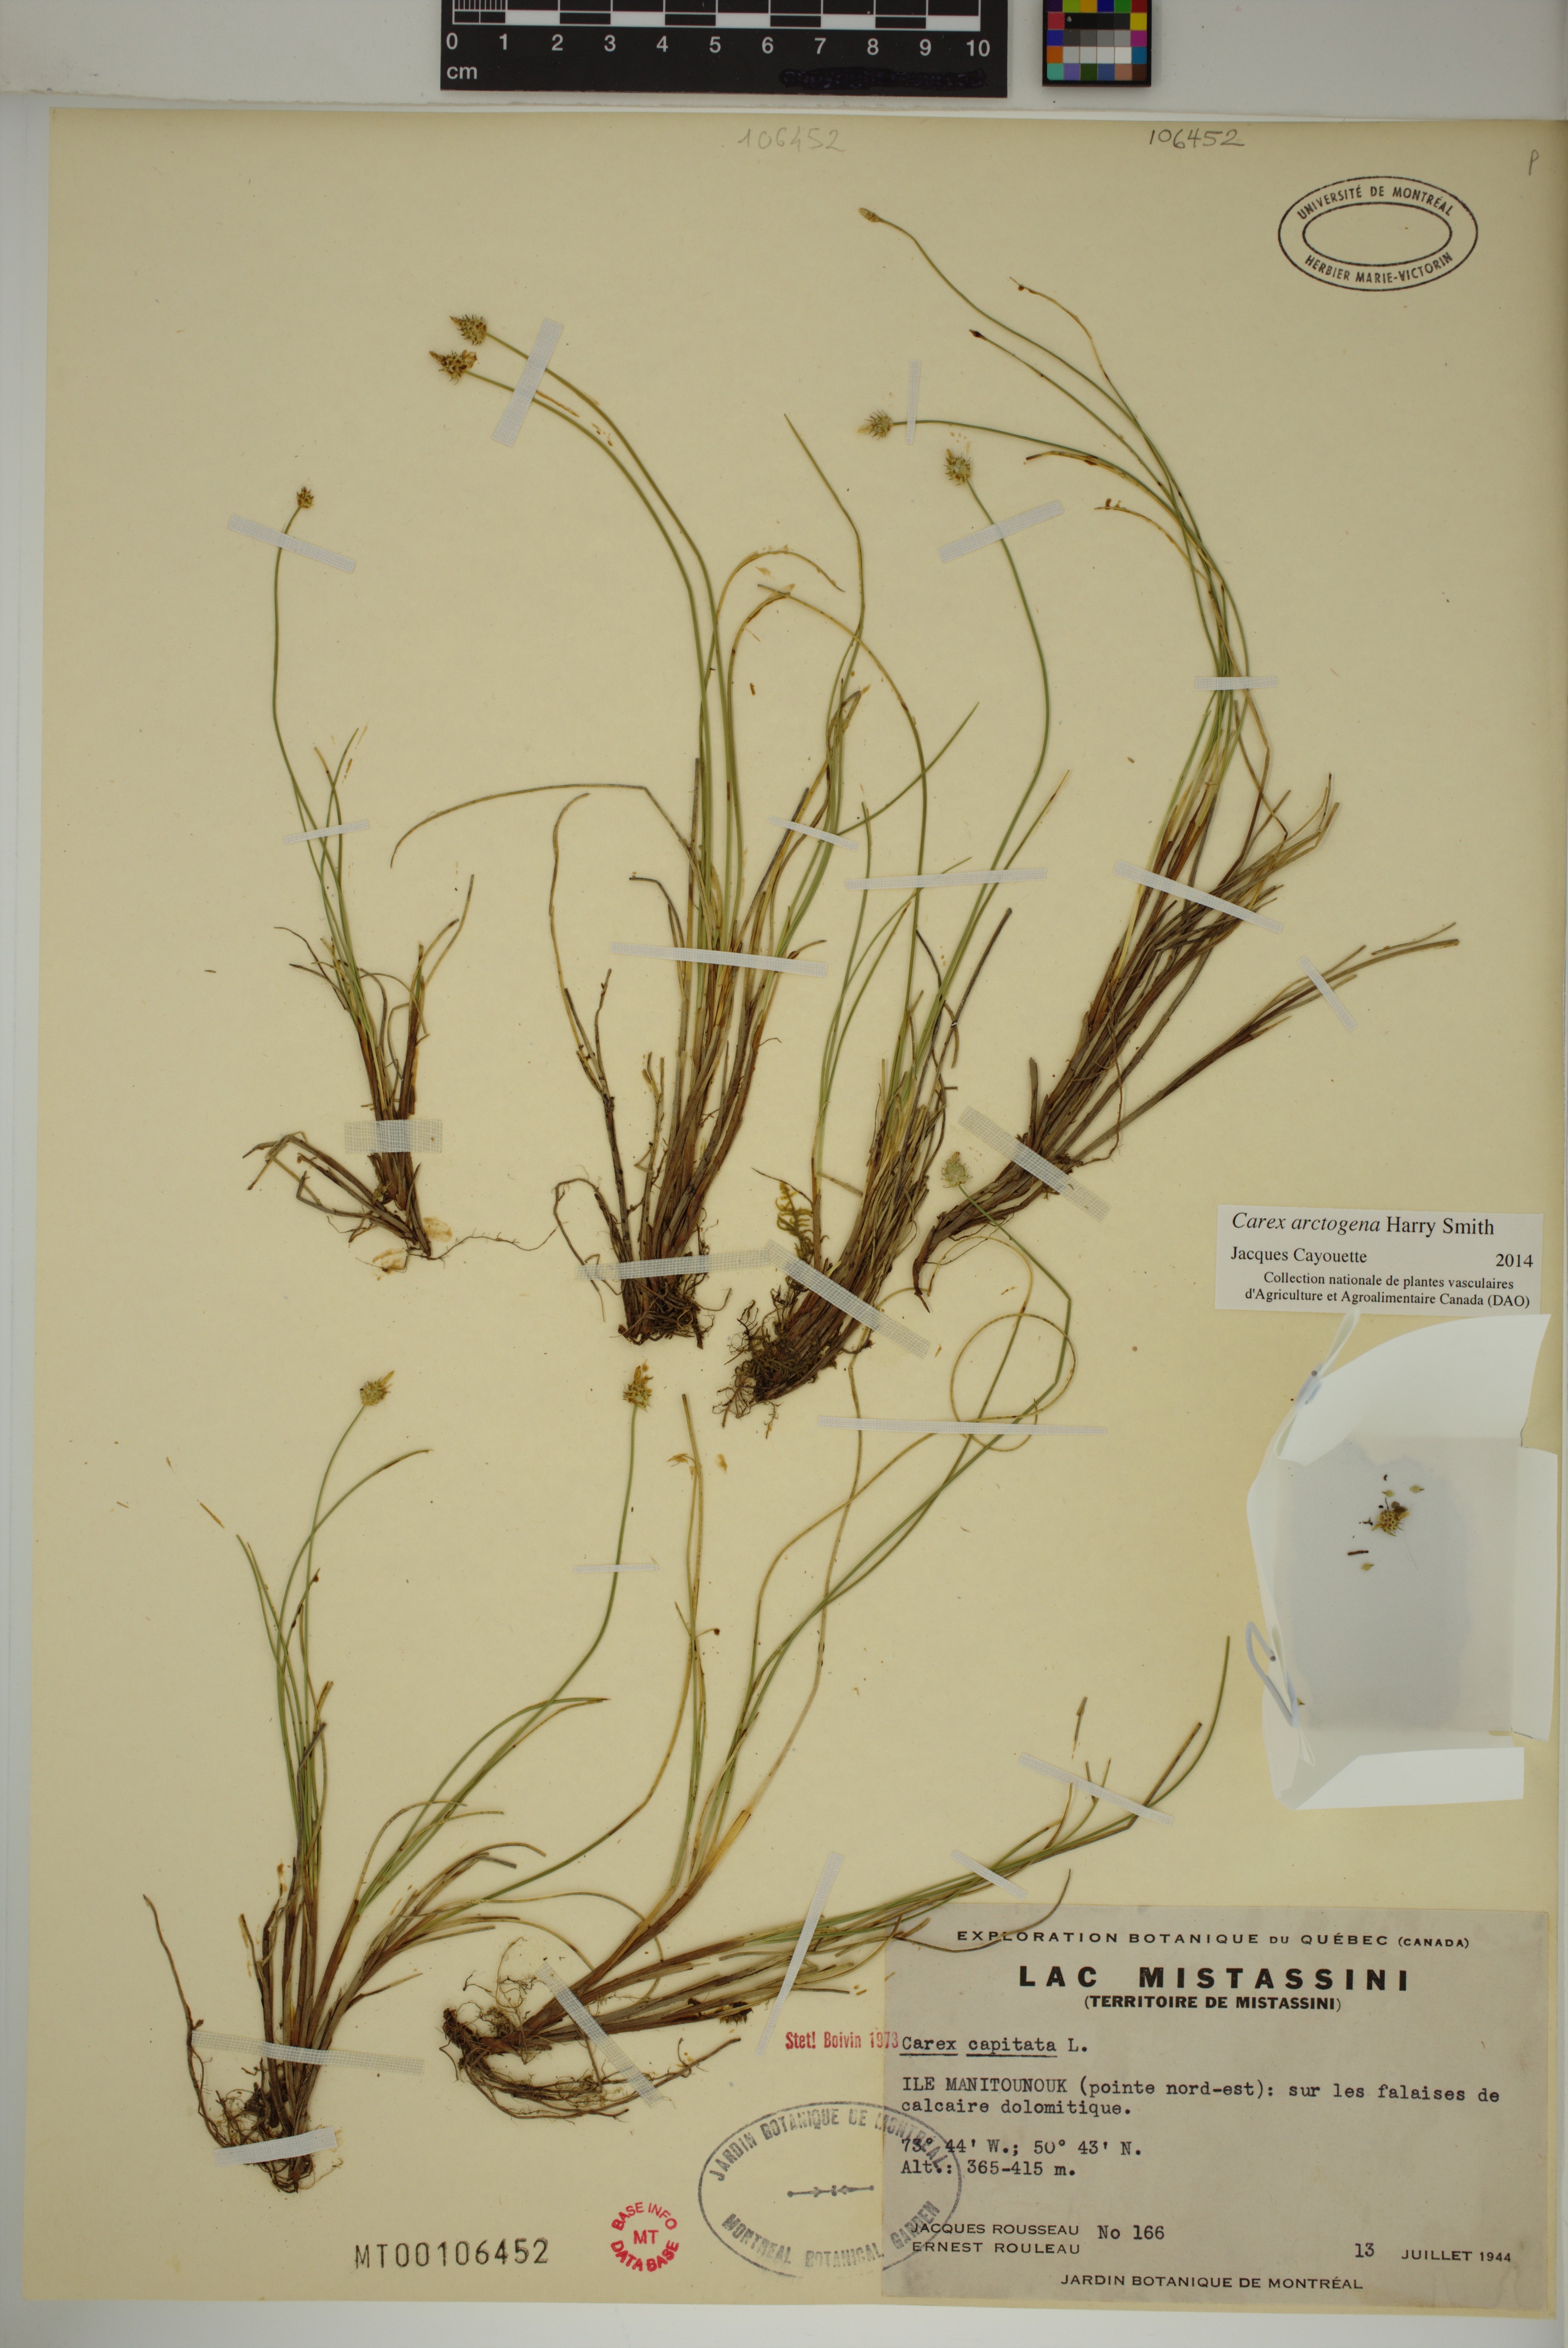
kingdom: Plantae
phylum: Tracheophyta
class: Liliopsida
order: Poales
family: Cyperaceae
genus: Carex
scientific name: Carex arctogena
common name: Black sedge
